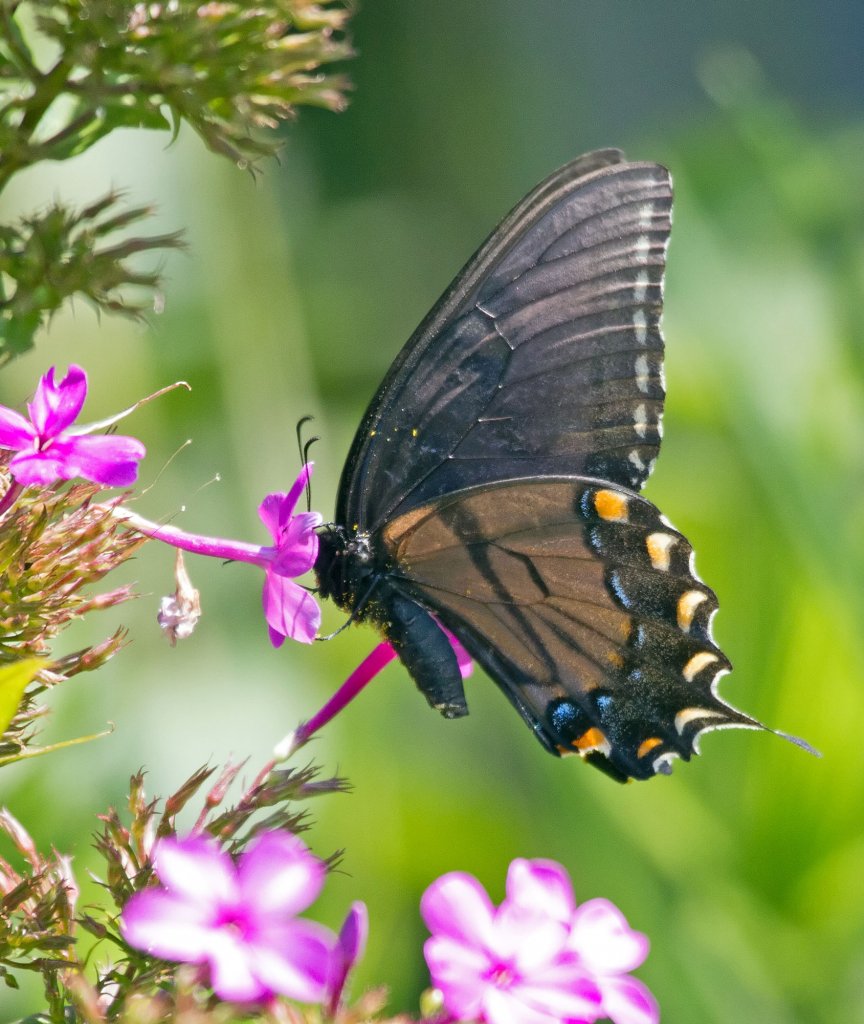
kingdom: Animalia
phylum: Arthropoda
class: Insecta
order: Lepidoptera
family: Papilionidae
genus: Pterourus
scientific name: Pterourus glaucus
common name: Eastern Tiger Swallowtail
